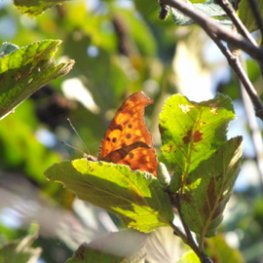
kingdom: Animalia
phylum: Arthropoda
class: Insecta
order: Lepidoptera
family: Nymphalidae
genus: Polygonia
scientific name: Polygonia interrogationis
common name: Question Mark
